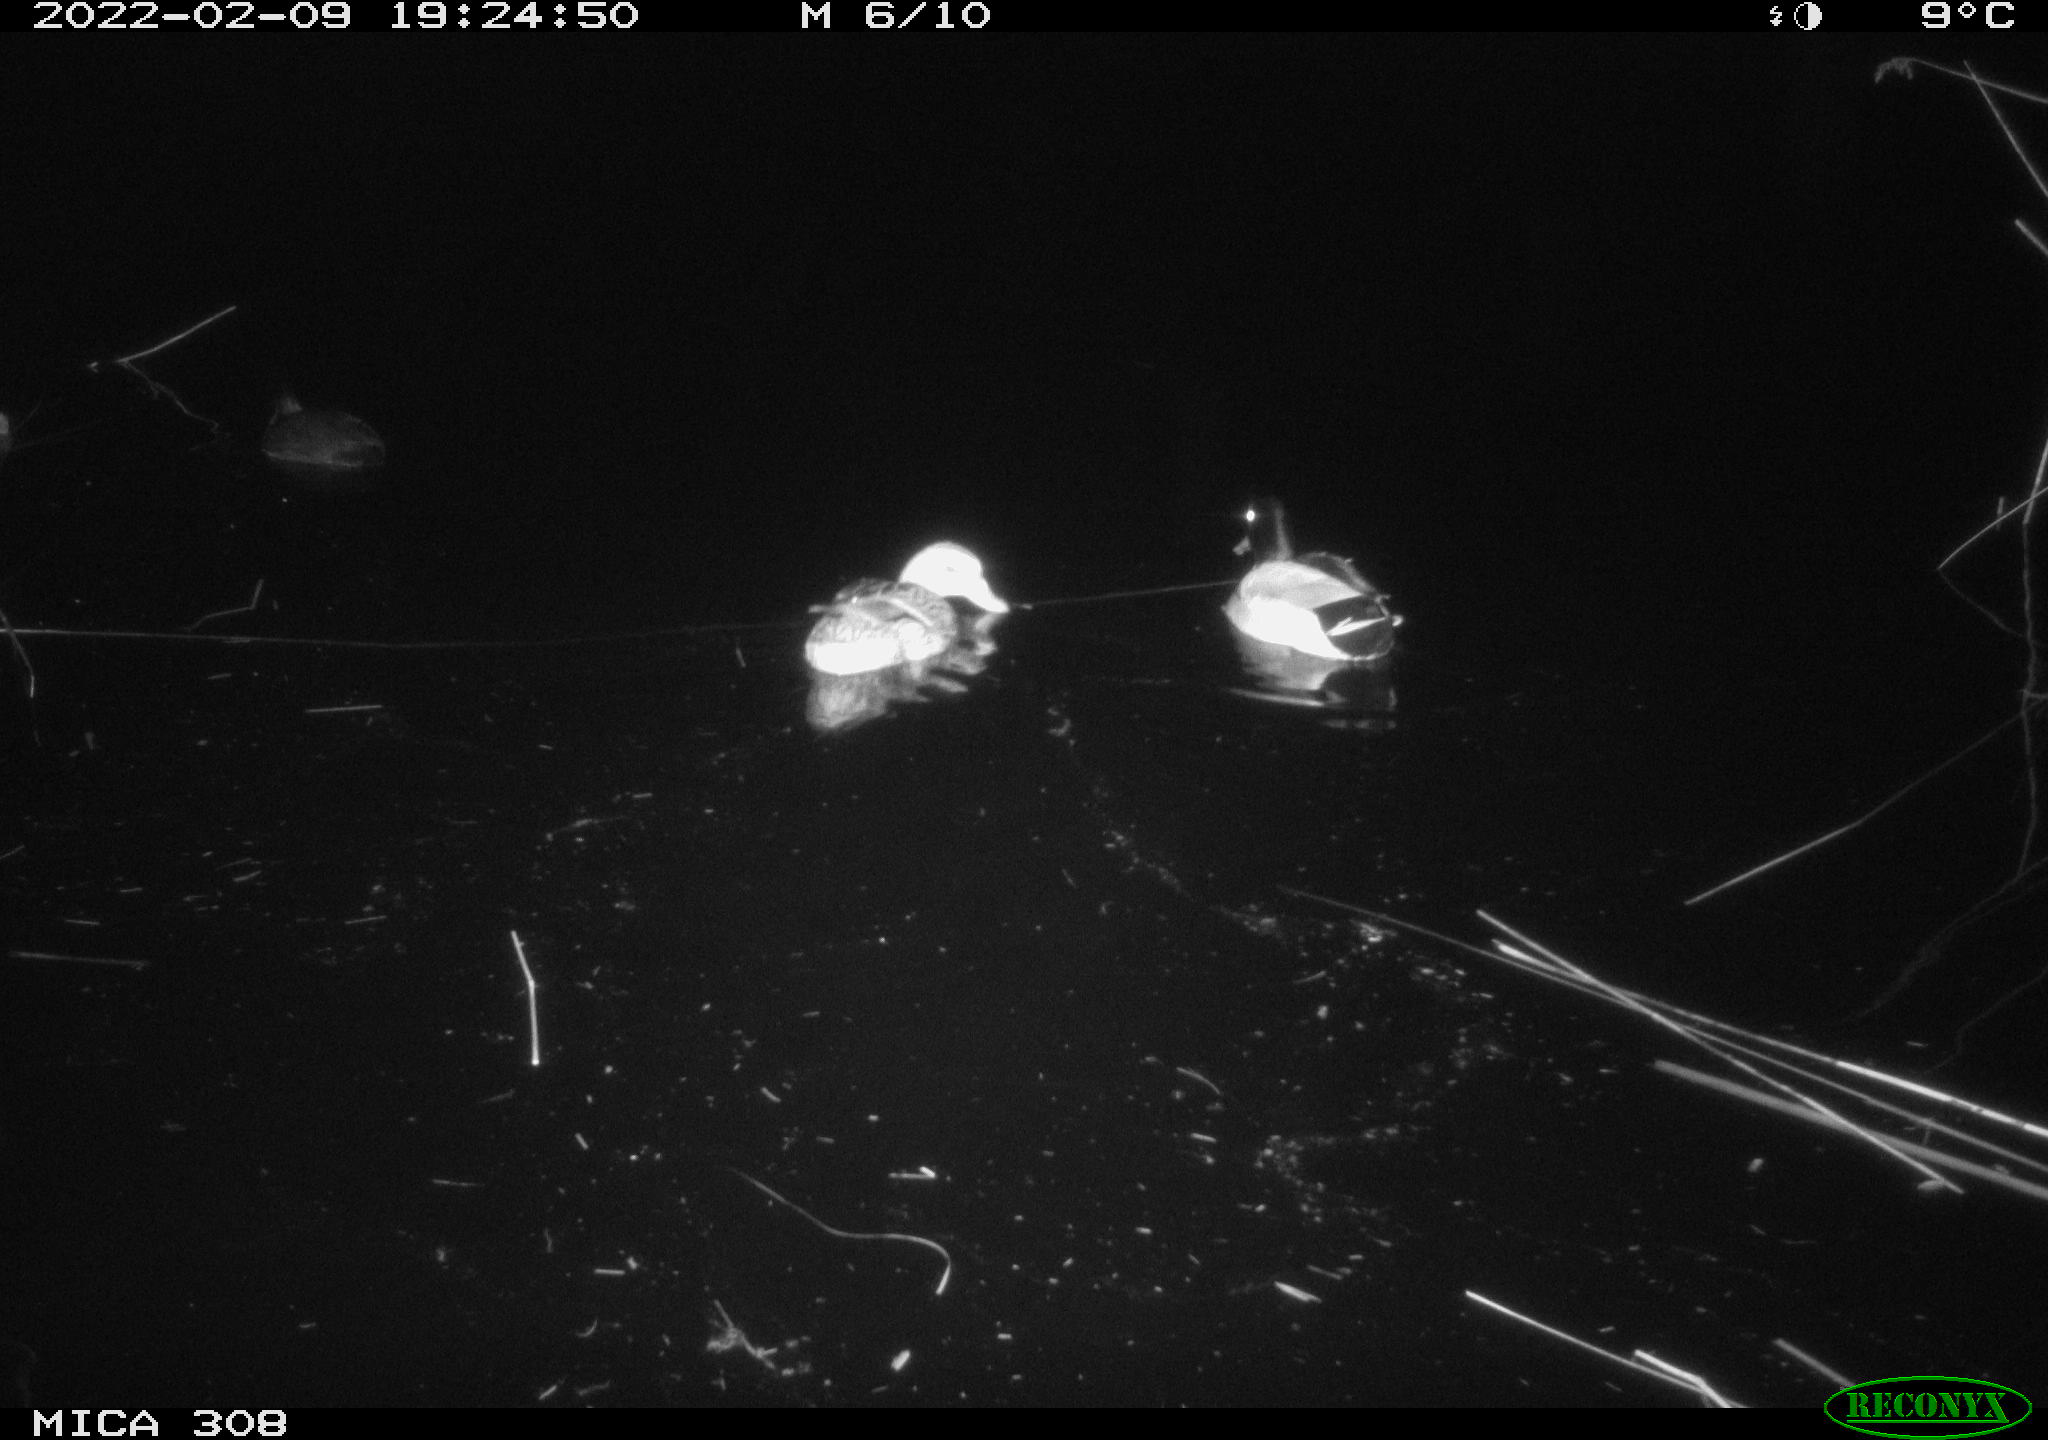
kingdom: Animalia
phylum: Chordata
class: Aves
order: Anseriformes
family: Anatidae
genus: Anas
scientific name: Anas platyrhynchos
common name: Mallard
